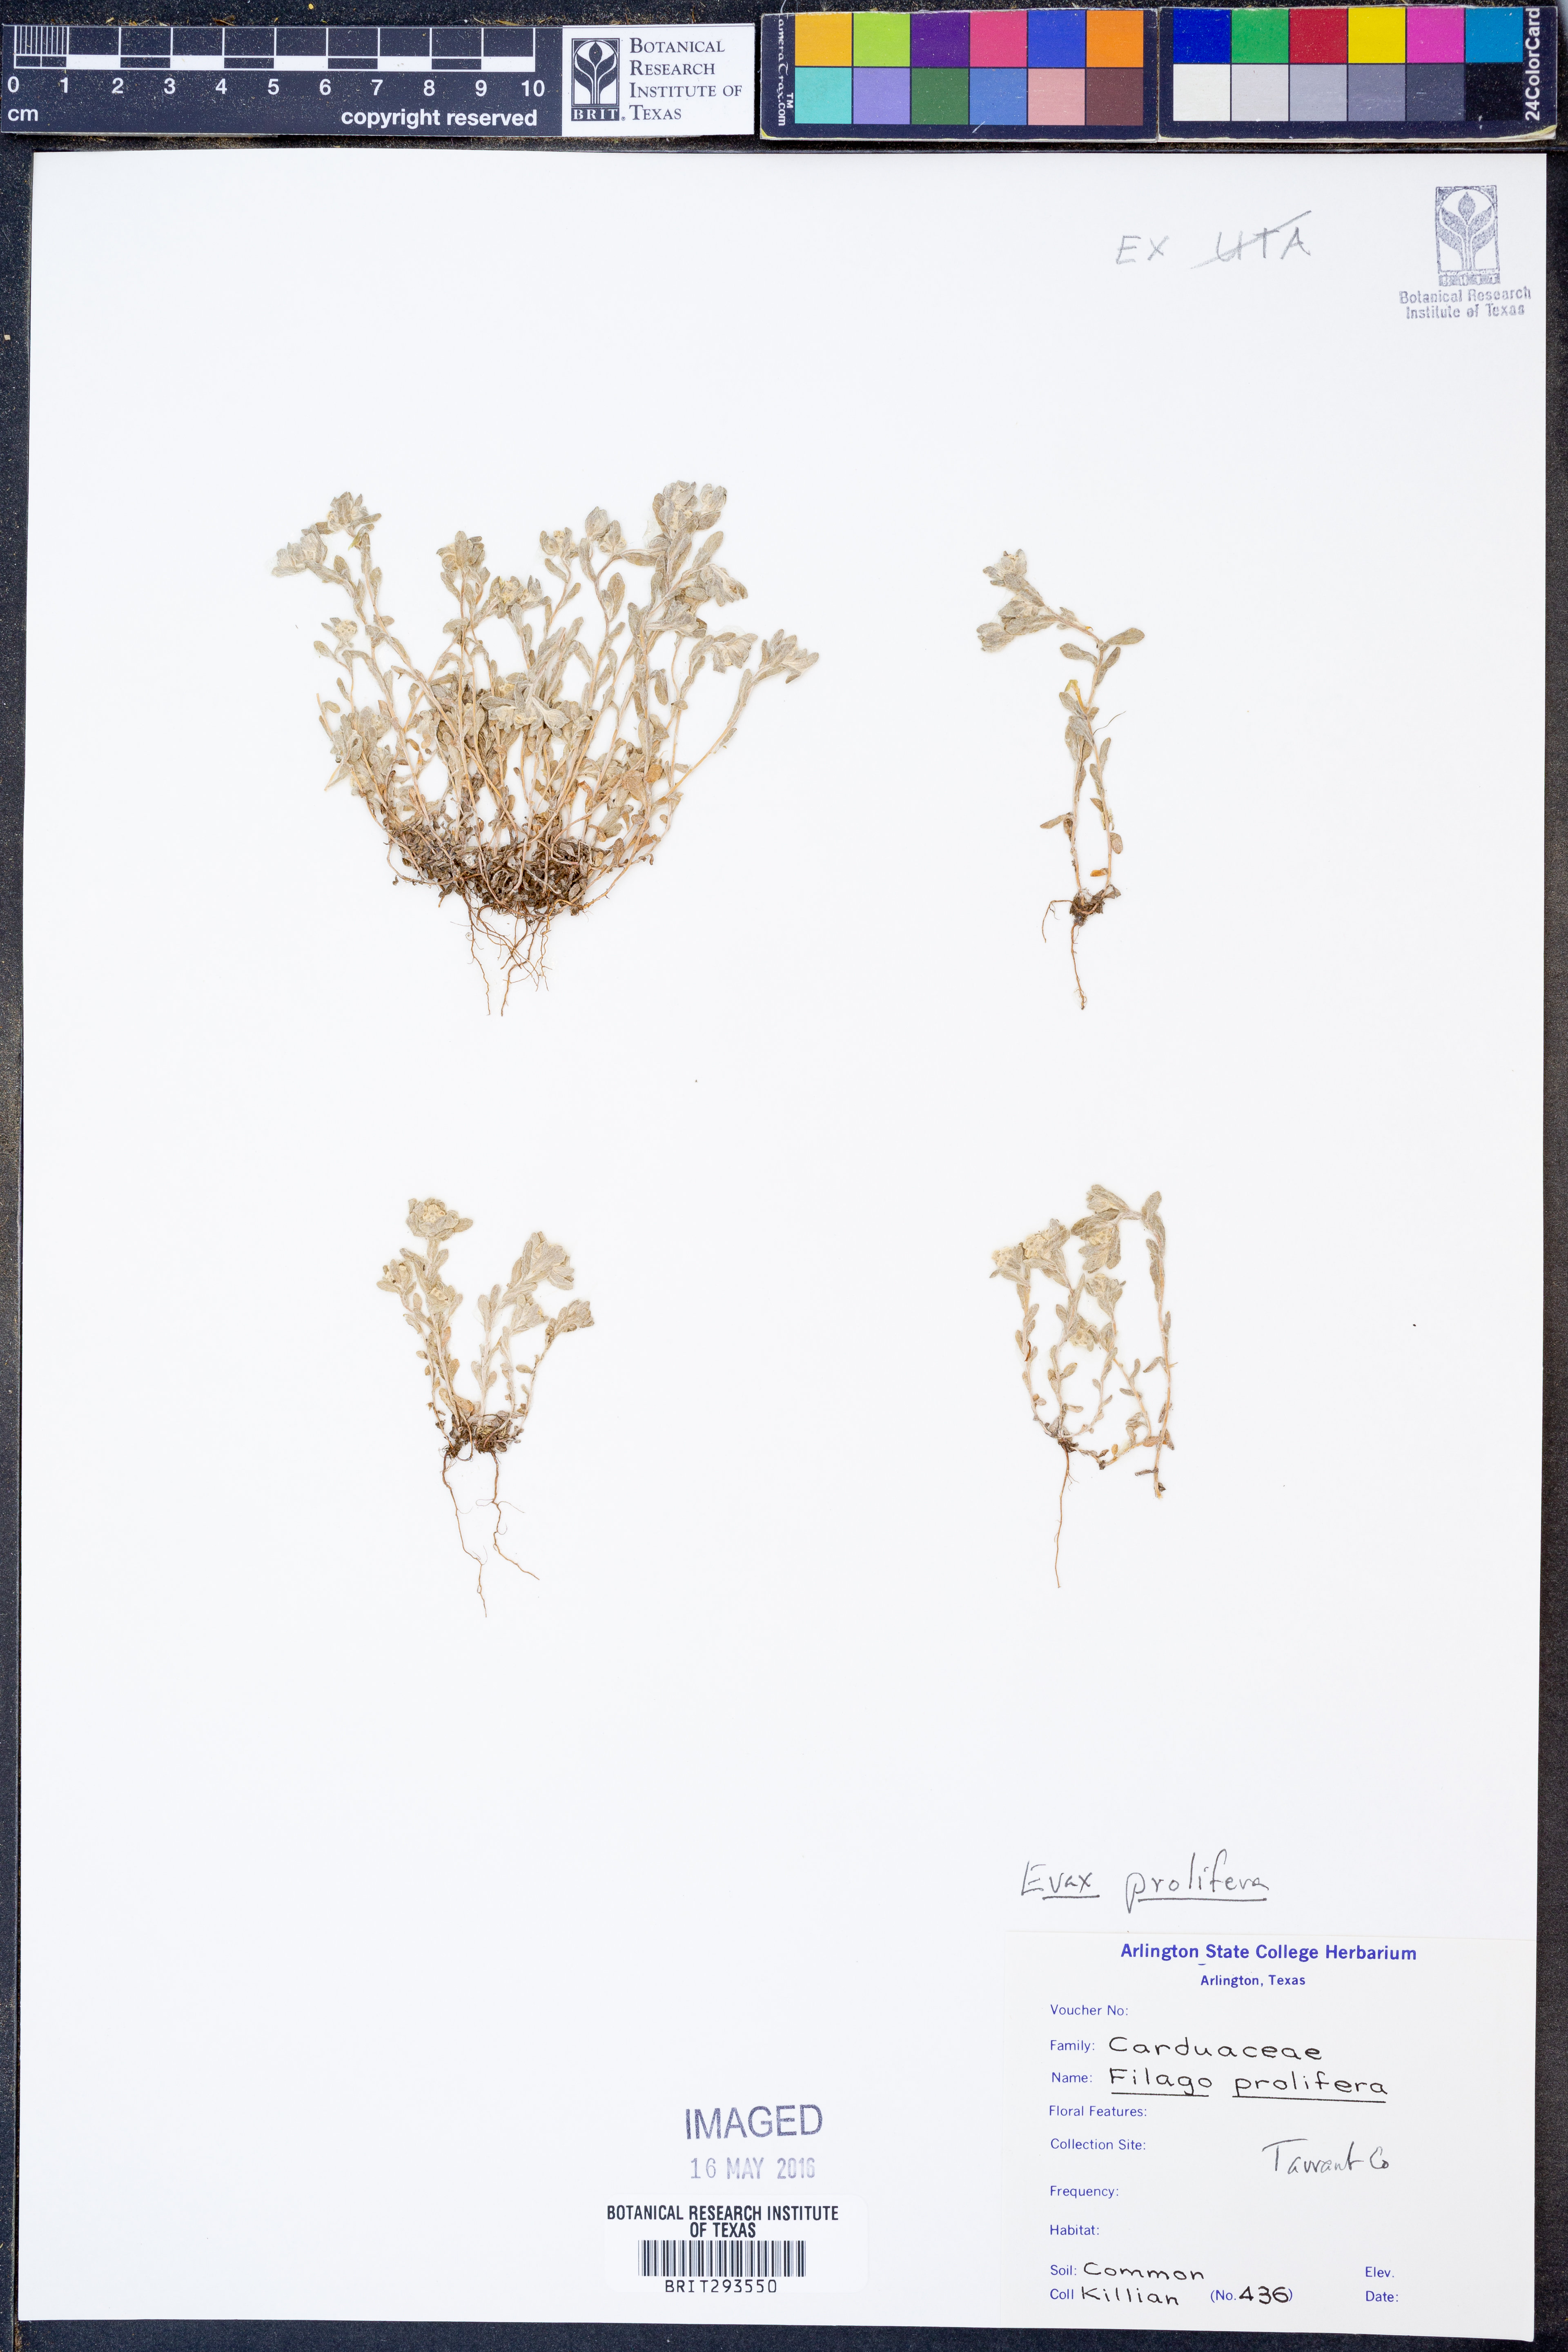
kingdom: Plantae
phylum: Tracheophyta
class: Magnoliopsida
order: Asterales
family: Asteraceae
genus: Filago
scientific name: Filago prolifera
